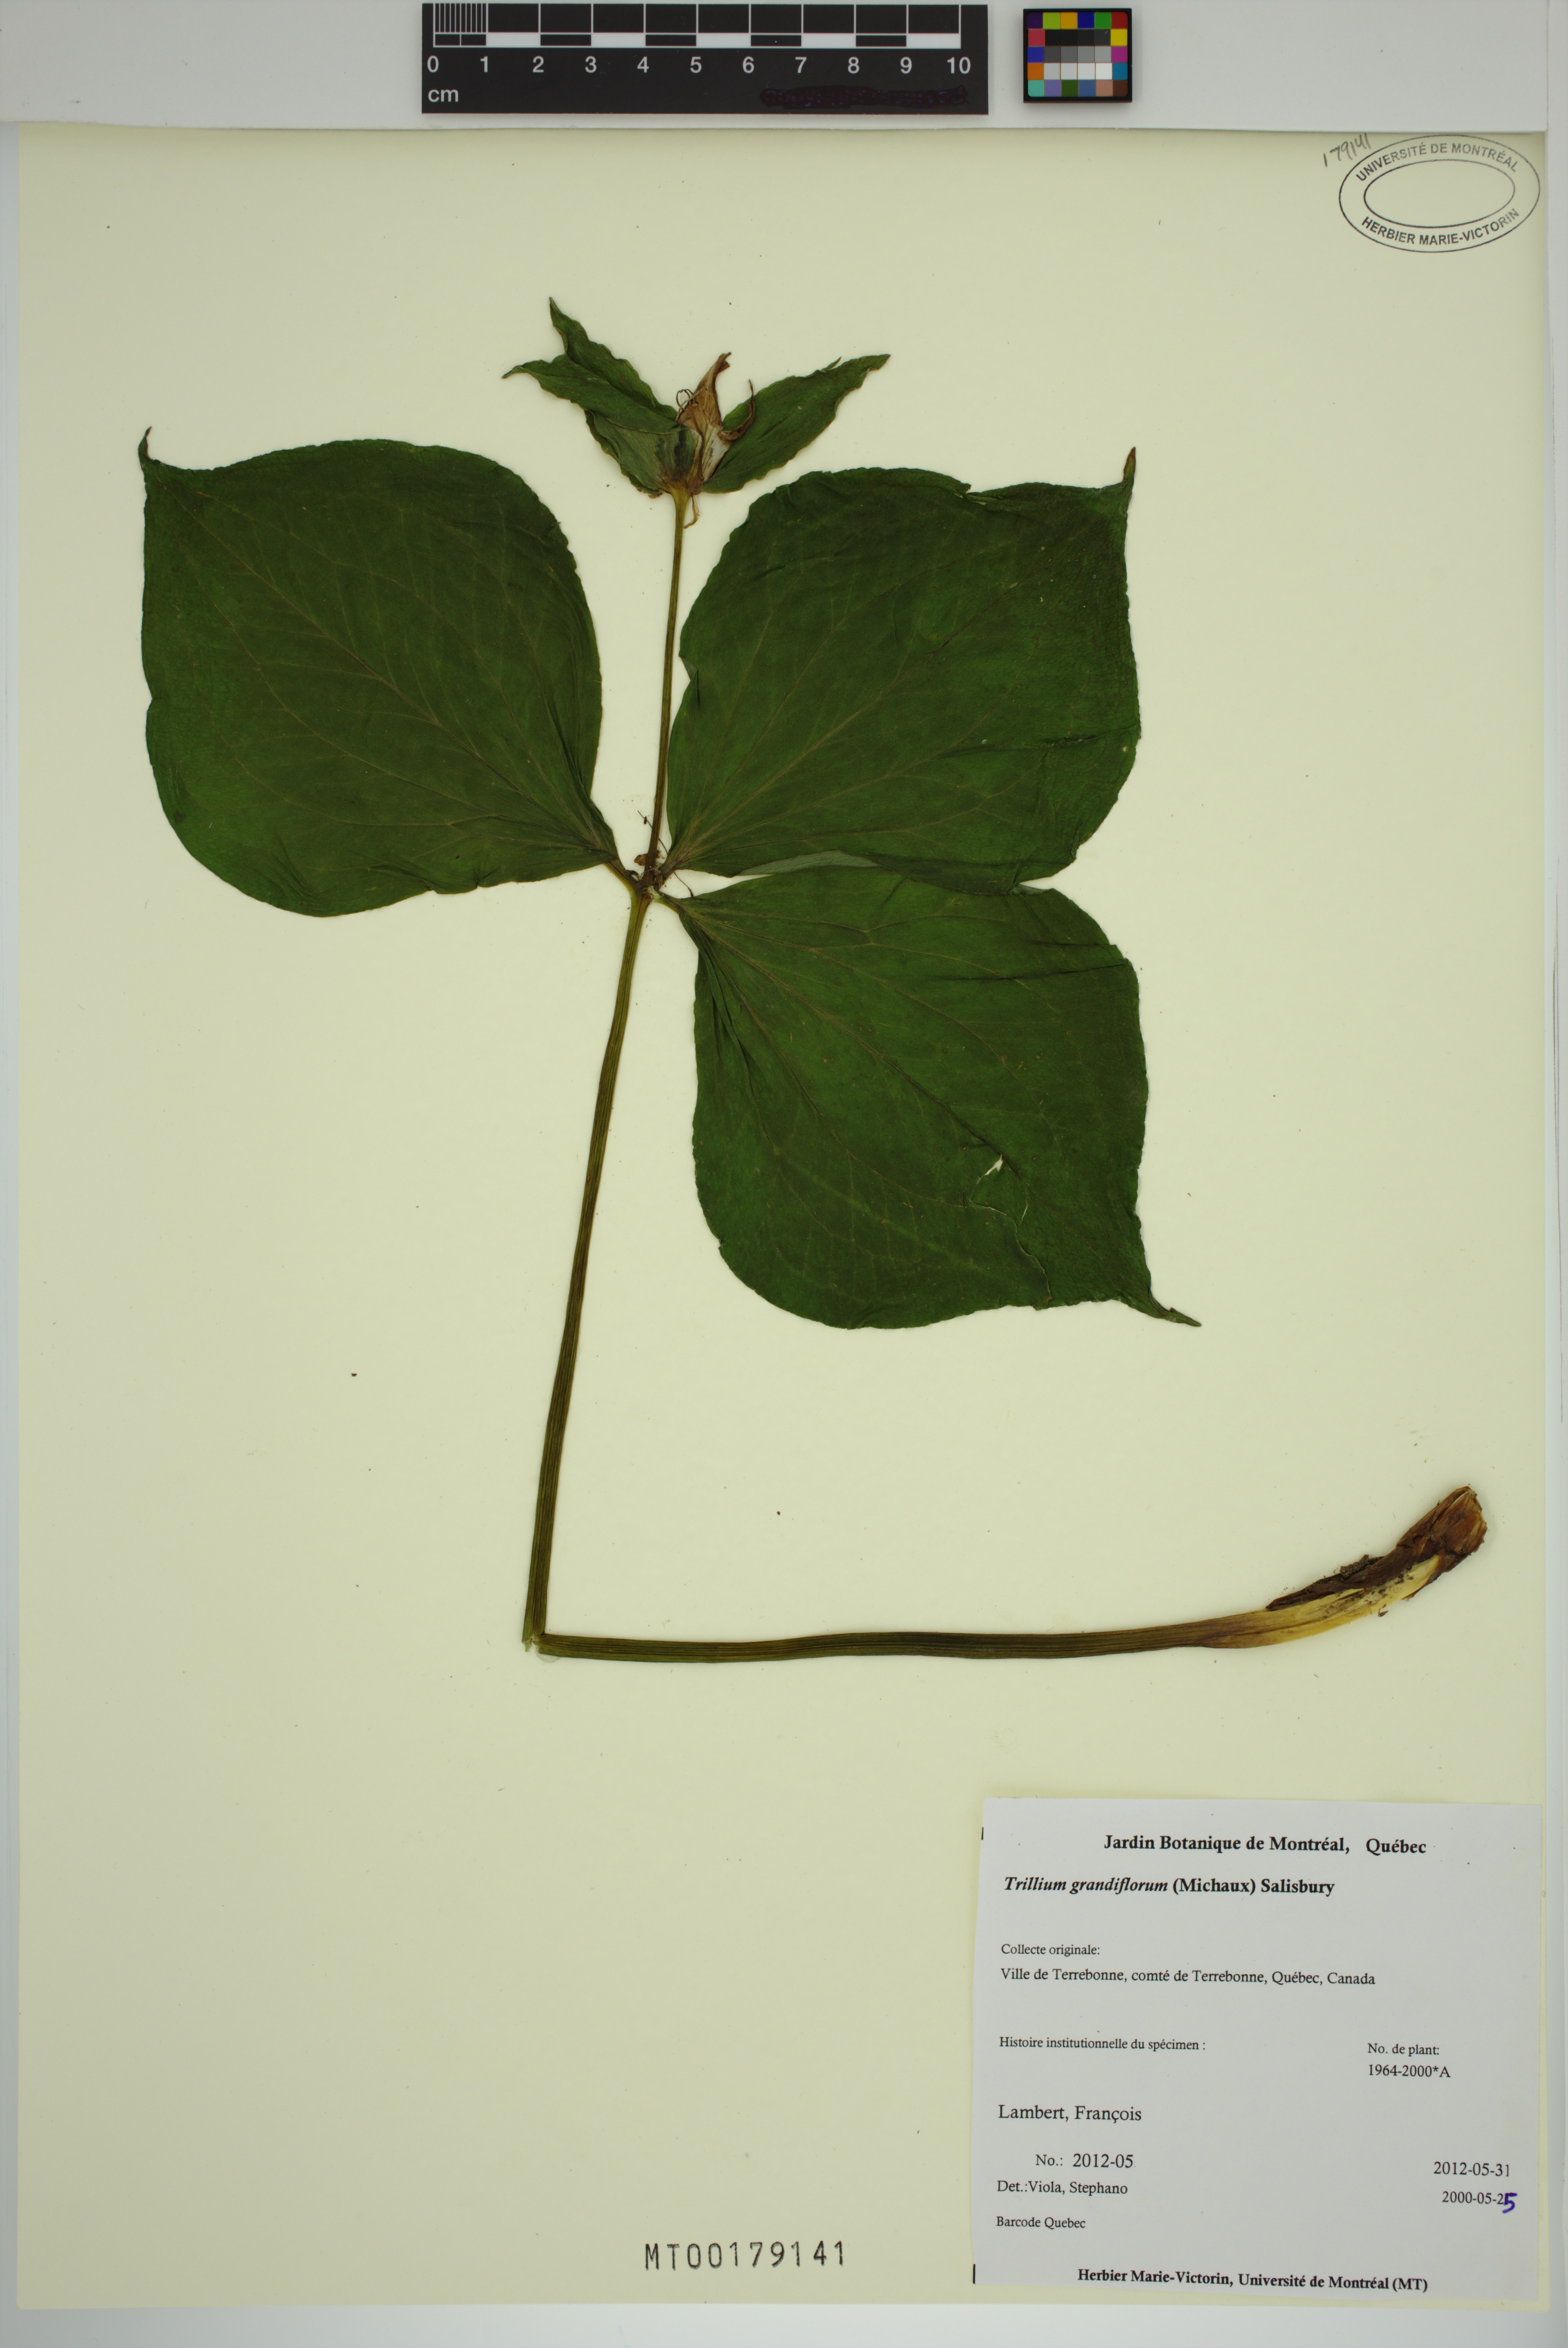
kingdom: Plantae
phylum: Tracheophyta
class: Liliopsida
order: Liliales
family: Melanthiaceae
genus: Trillium
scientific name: Trillium grandiflorum
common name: Great white trillium
